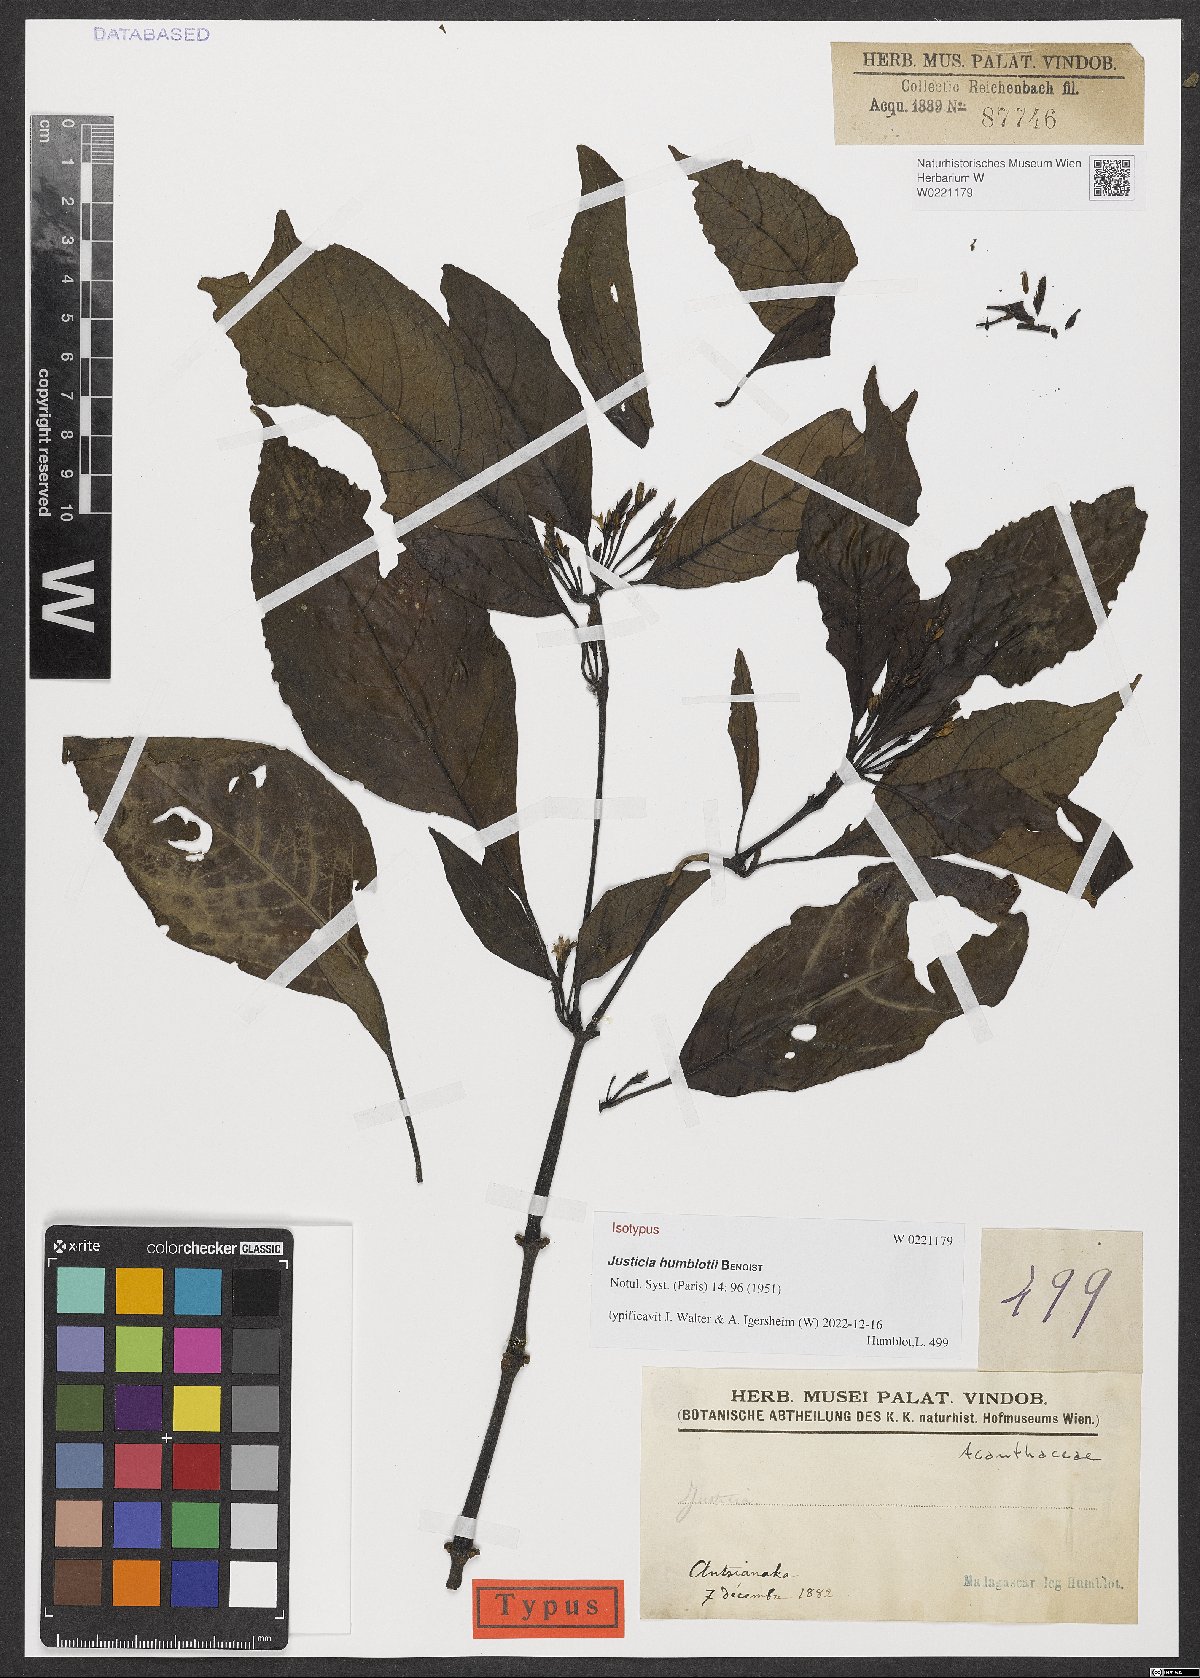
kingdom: Plantae
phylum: Tracheophyta
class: Magnoliopsida
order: Lamiales
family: Acanthaceae
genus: Justicia
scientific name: Justicia humblotii
